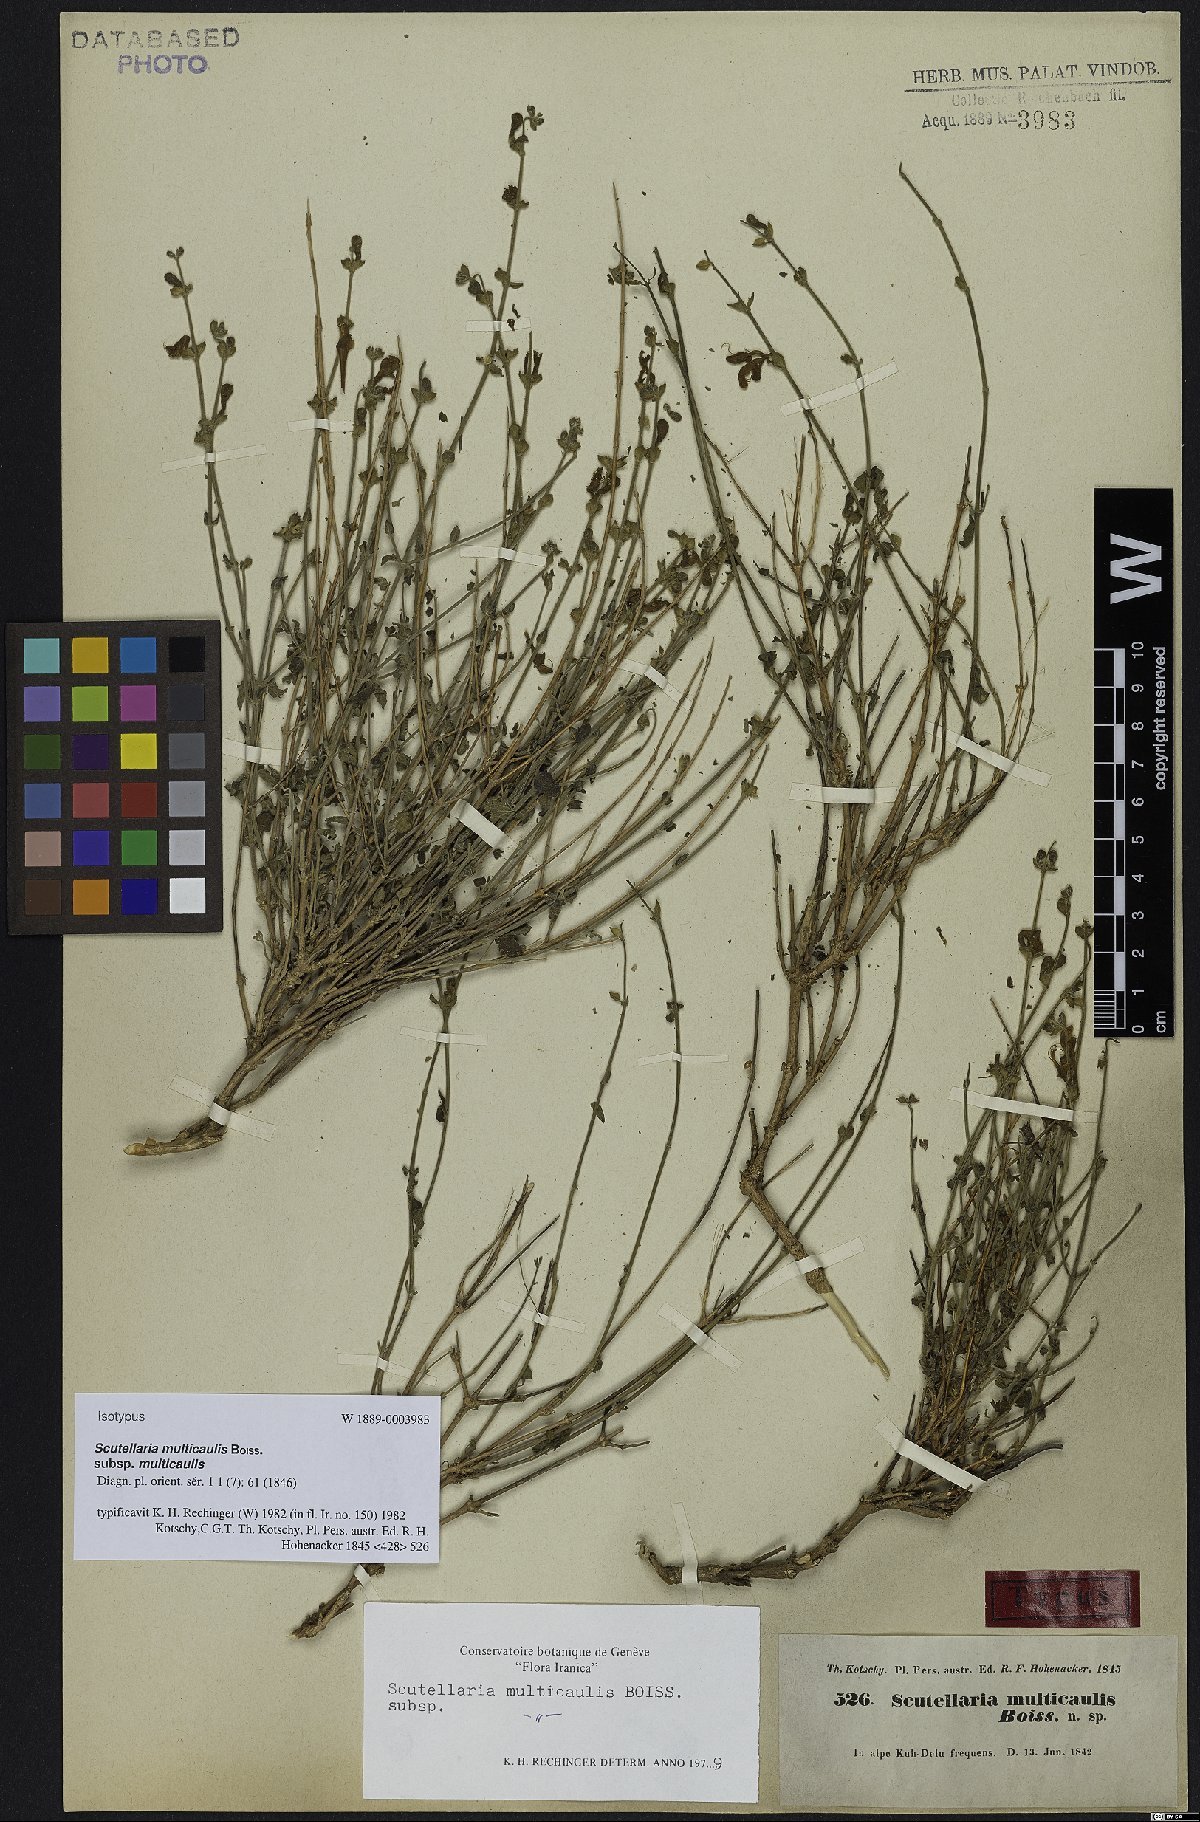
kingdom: Plantae
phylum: Tracheophyta
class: Magnoliopsida
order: Lamiales
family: Lamiaceae
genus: Scutellaria
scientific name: Scutellaria multicaulis
